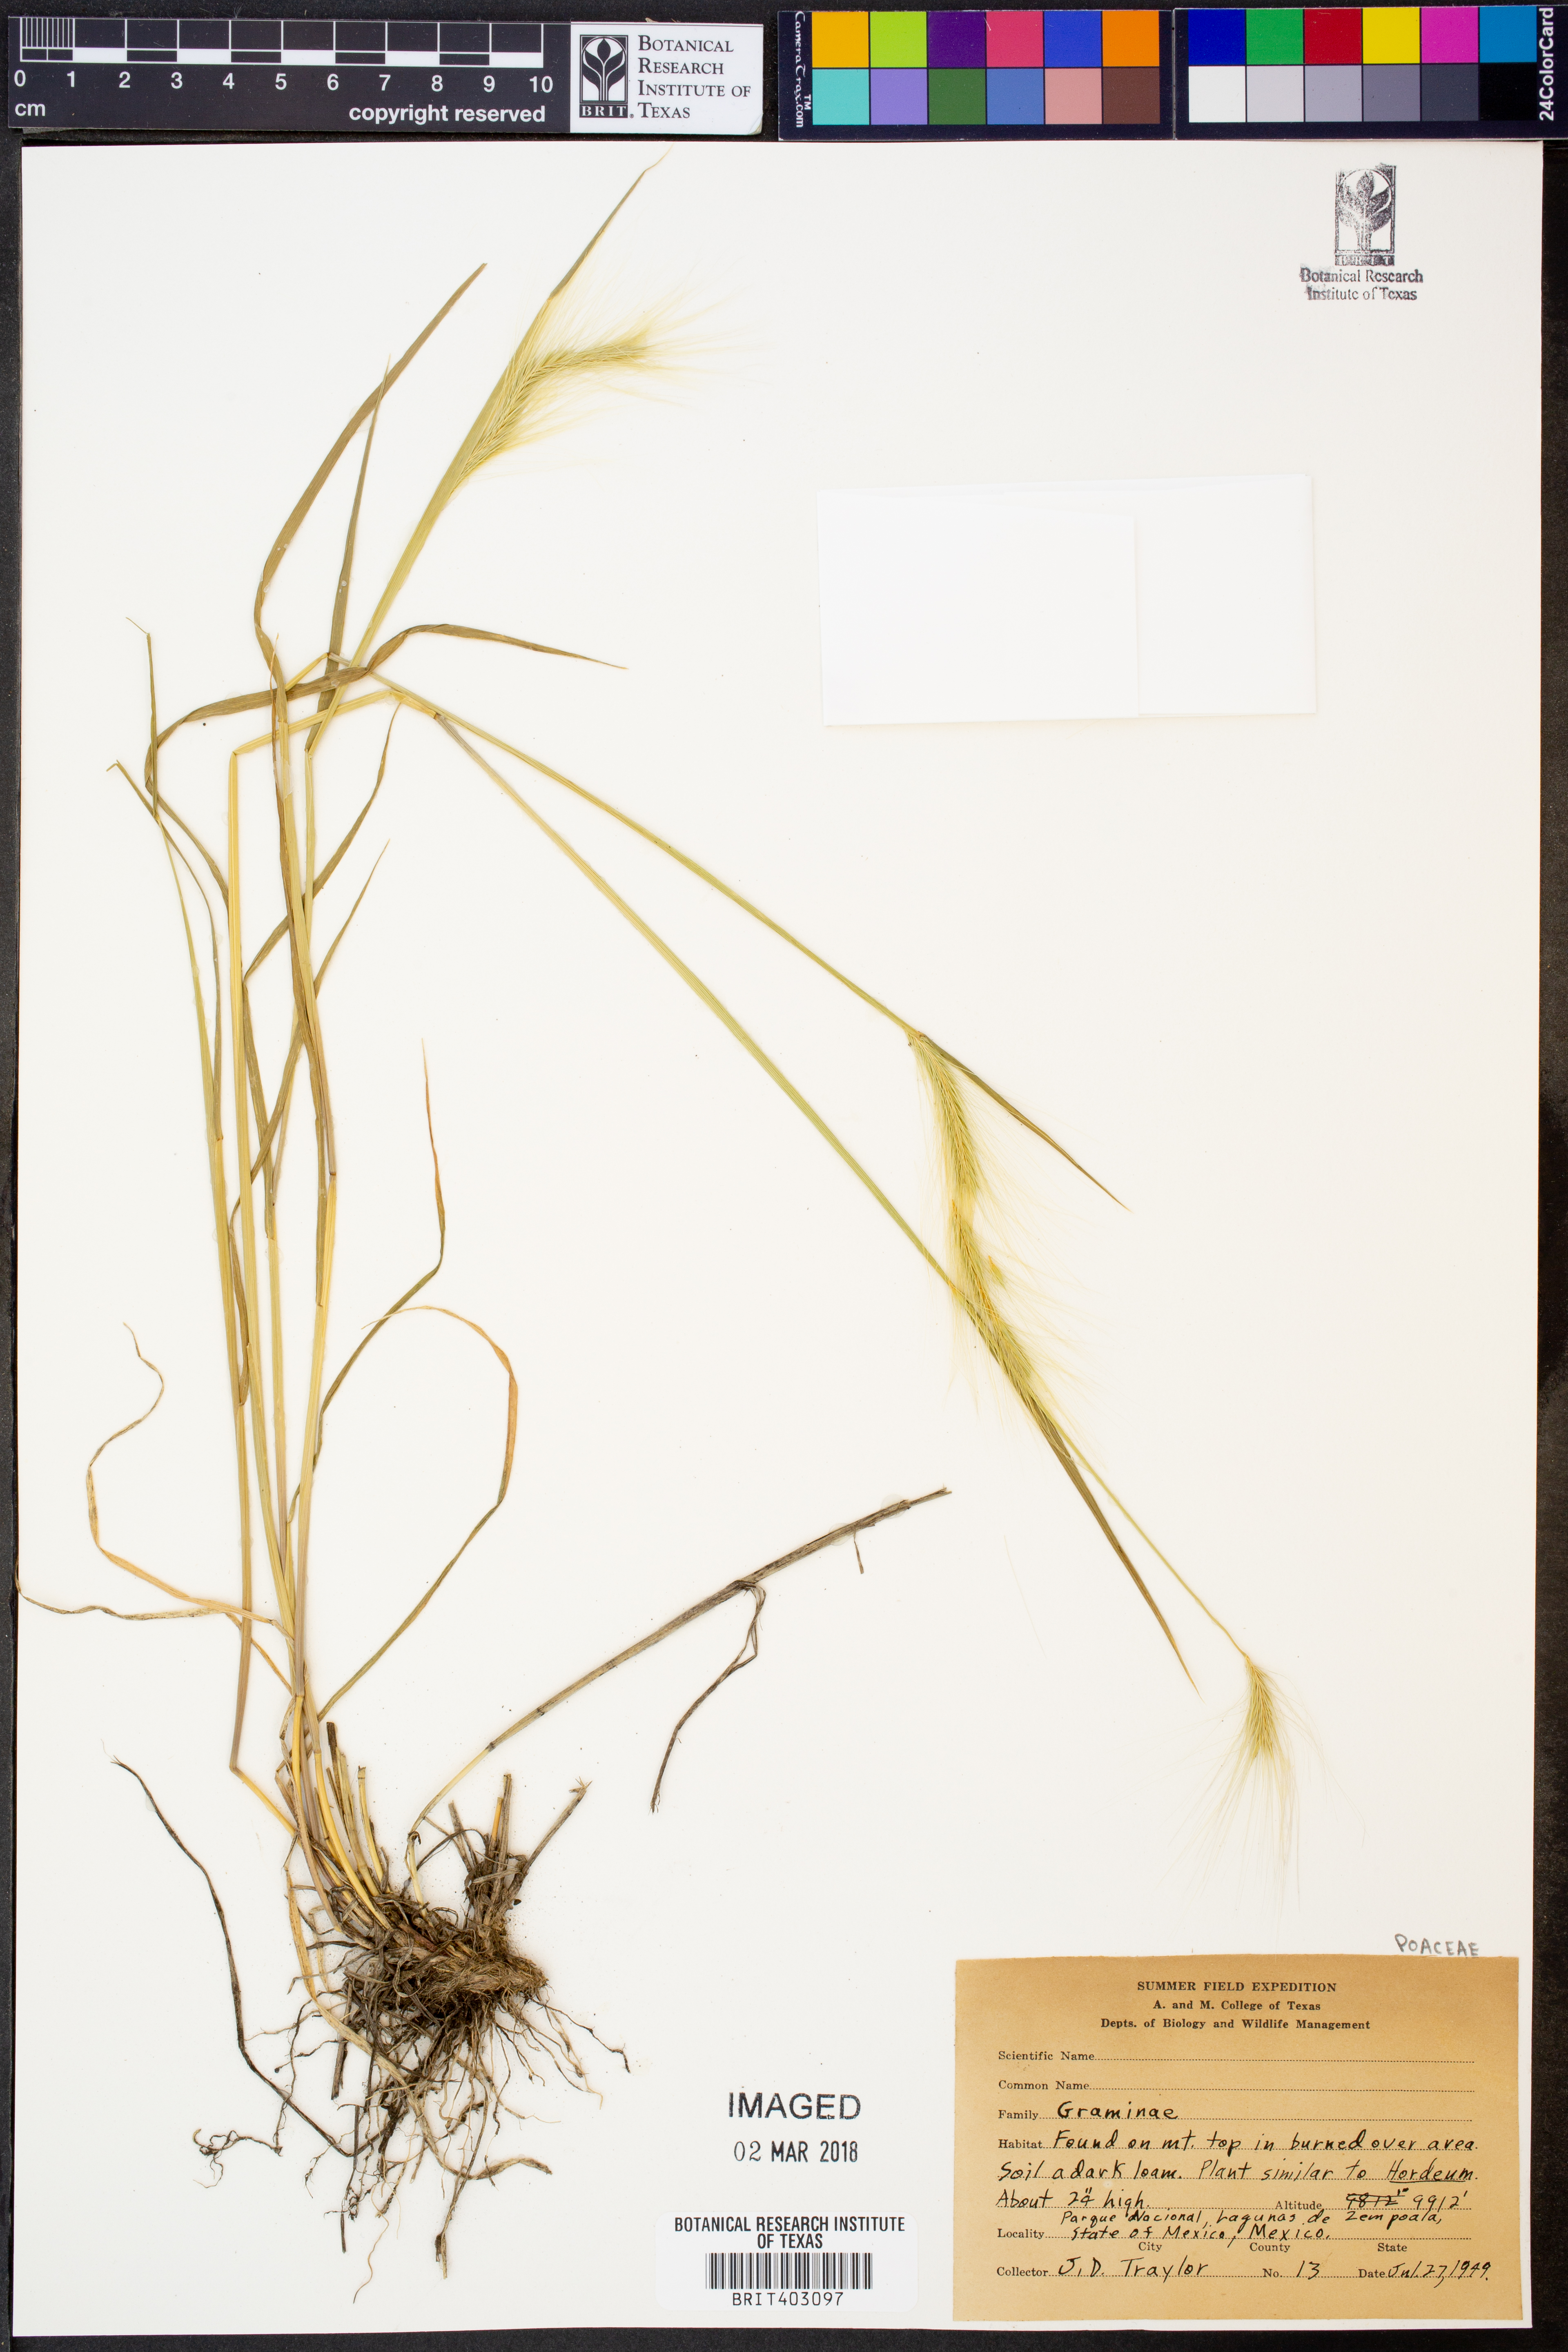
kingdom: Plantae
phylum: Tracheophyta
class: Liliopsida
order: Poales
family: Poaceae
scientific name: Poaceae
